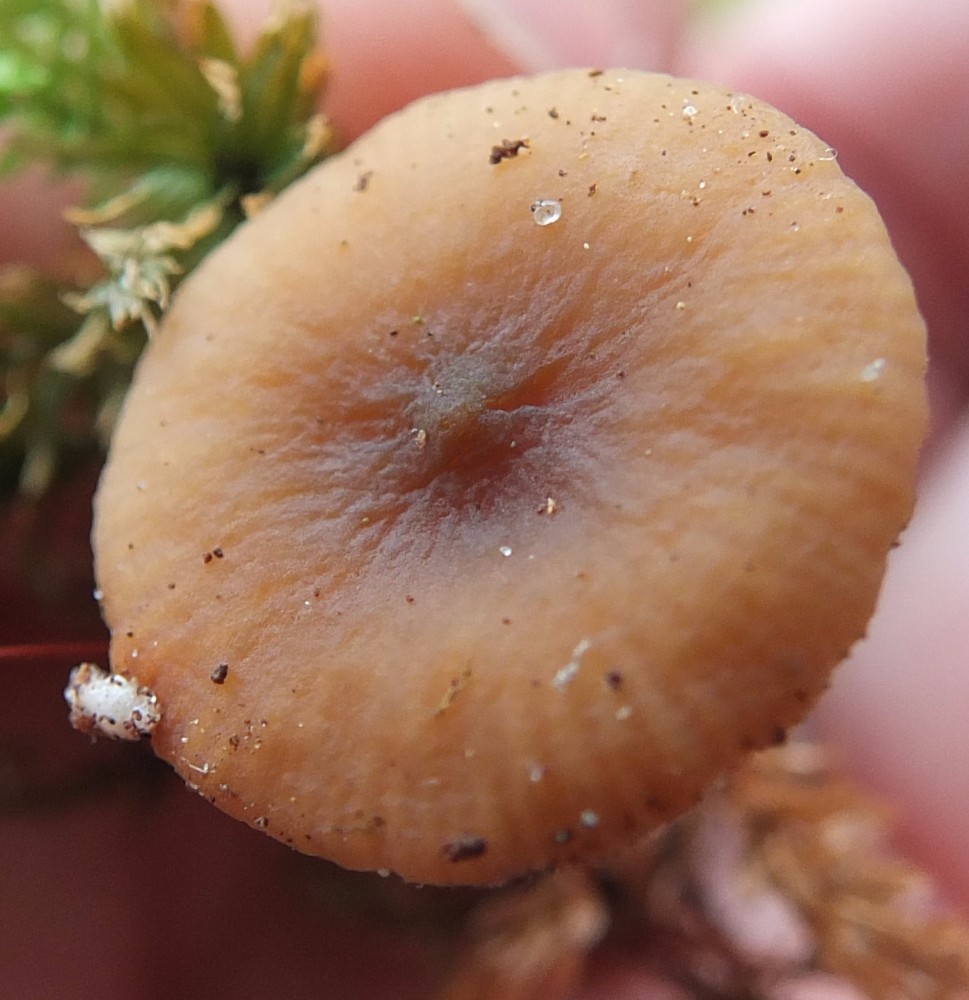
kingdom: Fungi
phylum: Basidiomycota
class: Agaricomycetes
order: Russulales
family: Russulaceae
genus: Lactarius
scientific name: Lactarius obscuratus
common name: elle-mælkehat
